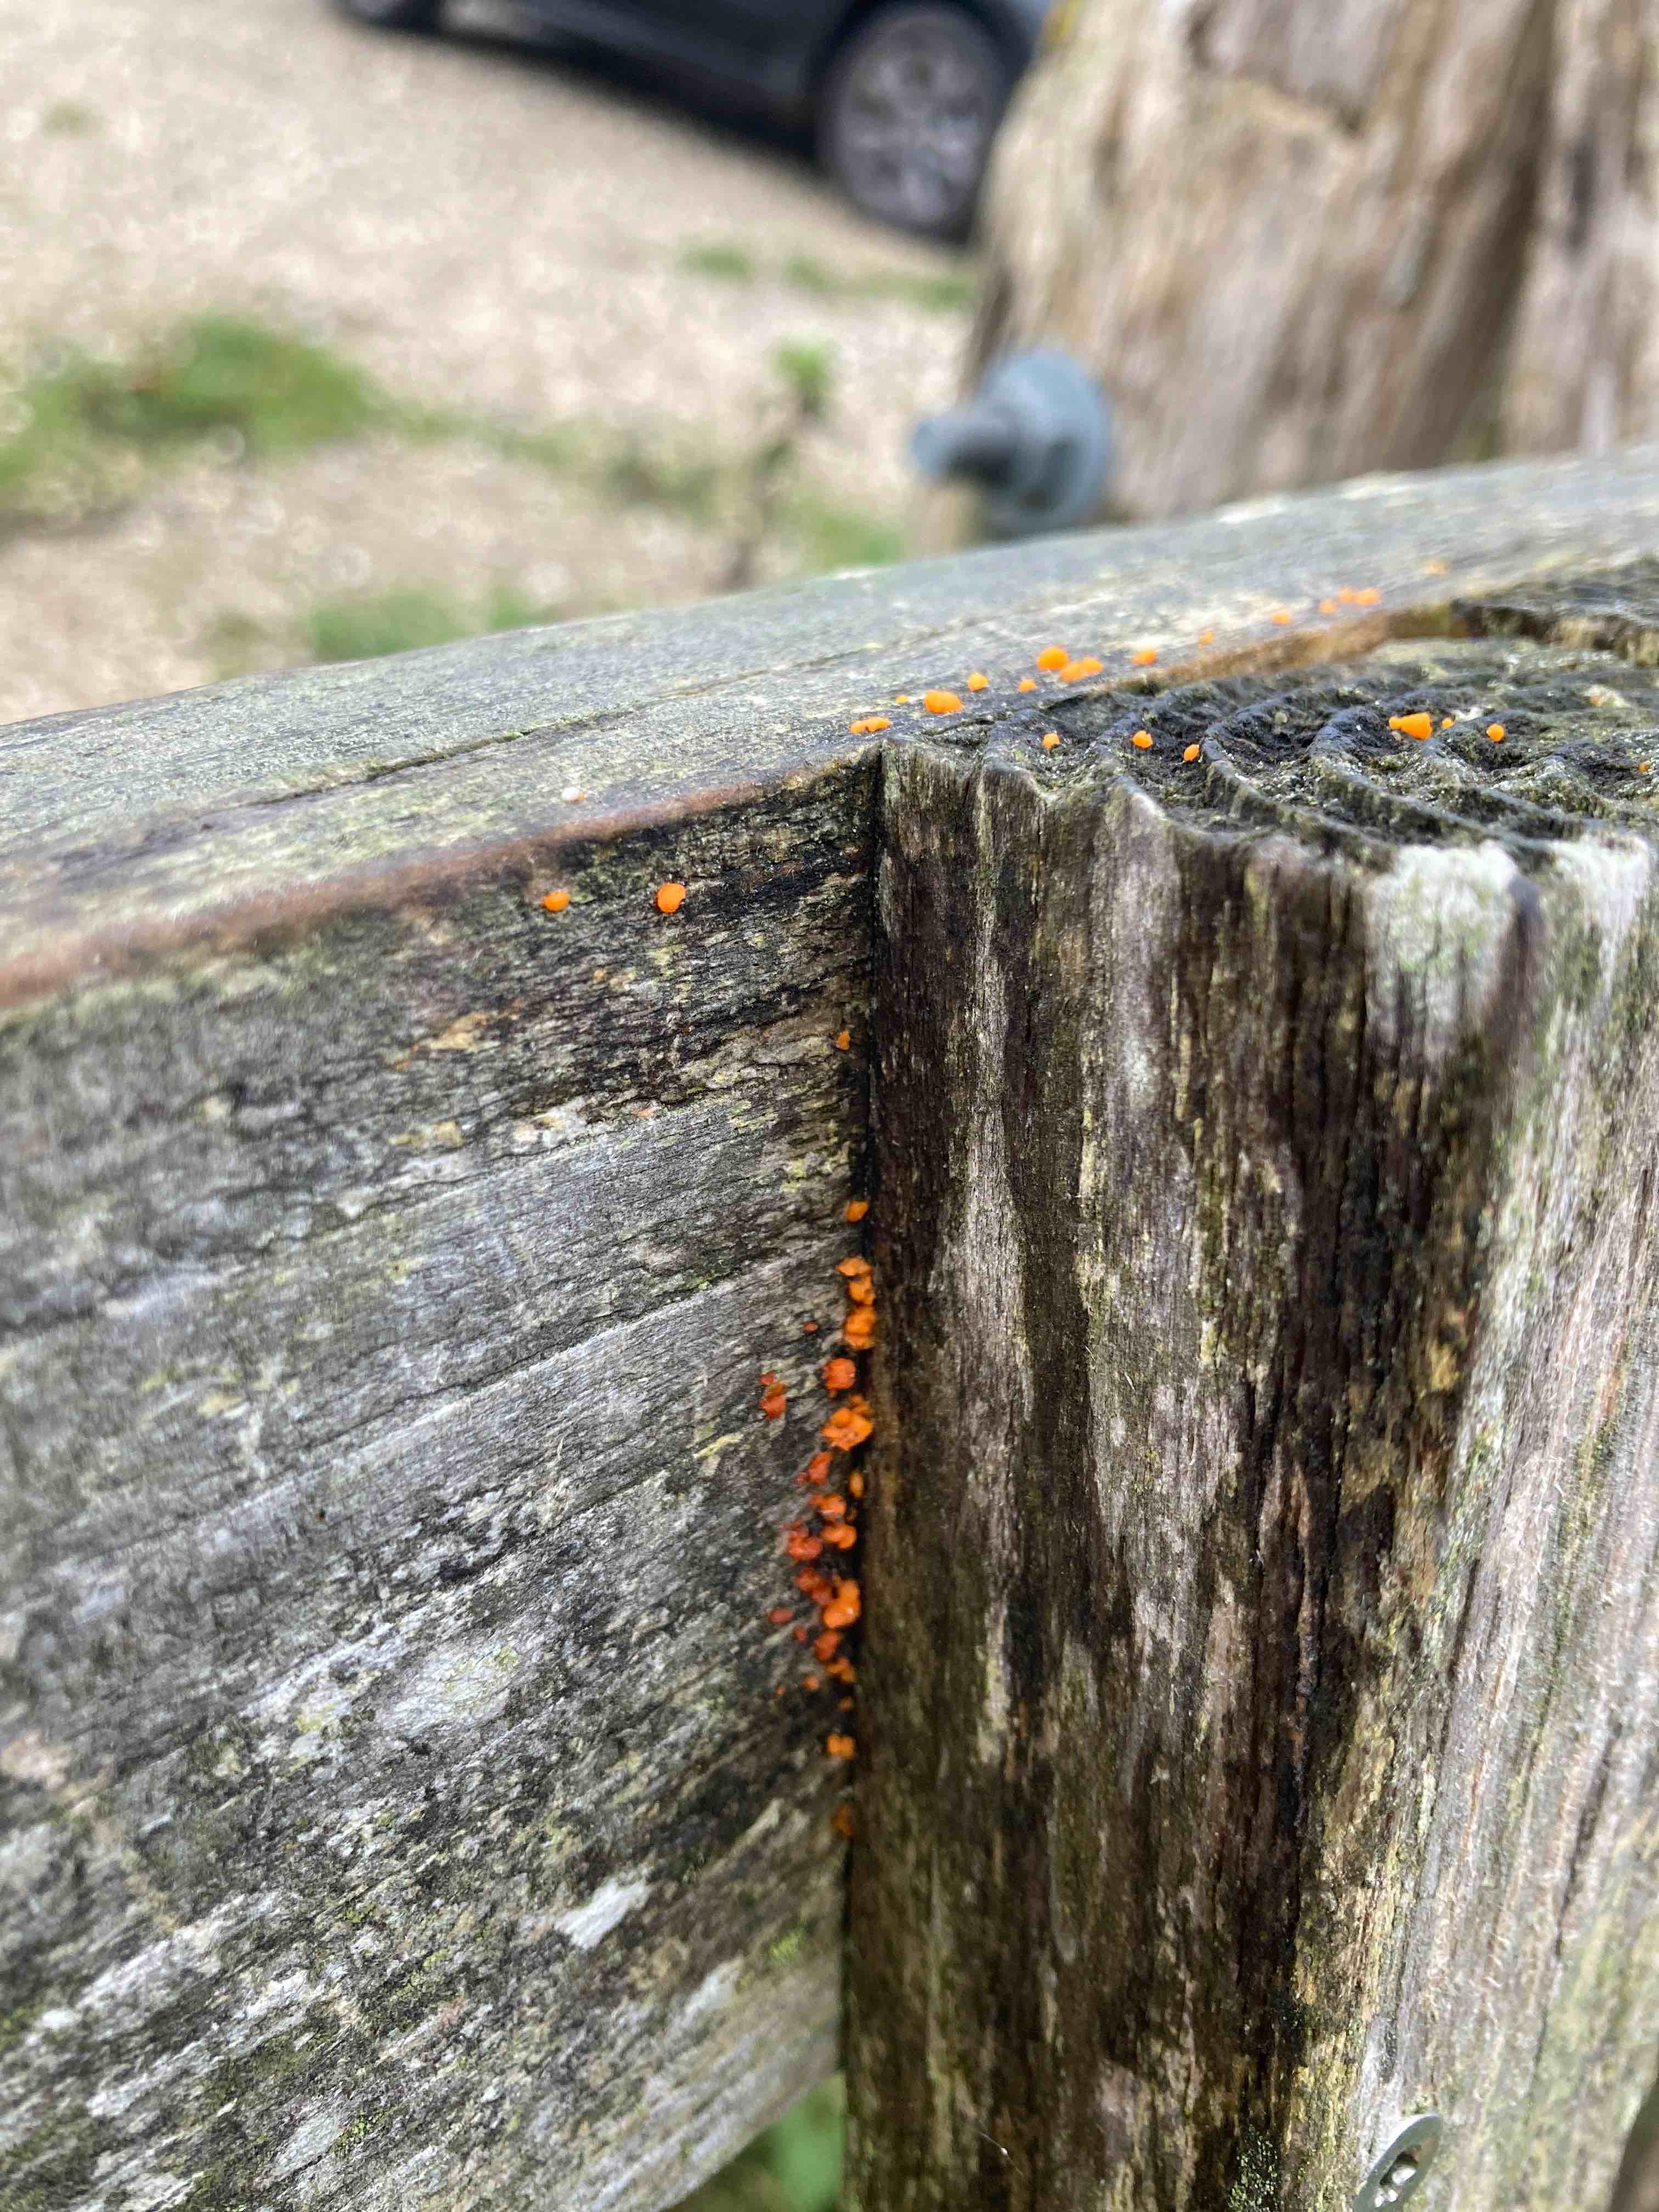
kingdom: Fungi
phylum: Basidiomycota
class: Dacrymycetes
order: Dacrymycetales
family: Dacrymycetaceae
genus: Dacrymyces
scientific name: Dacrymyces stillatus
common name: almindelig tåresvamp
